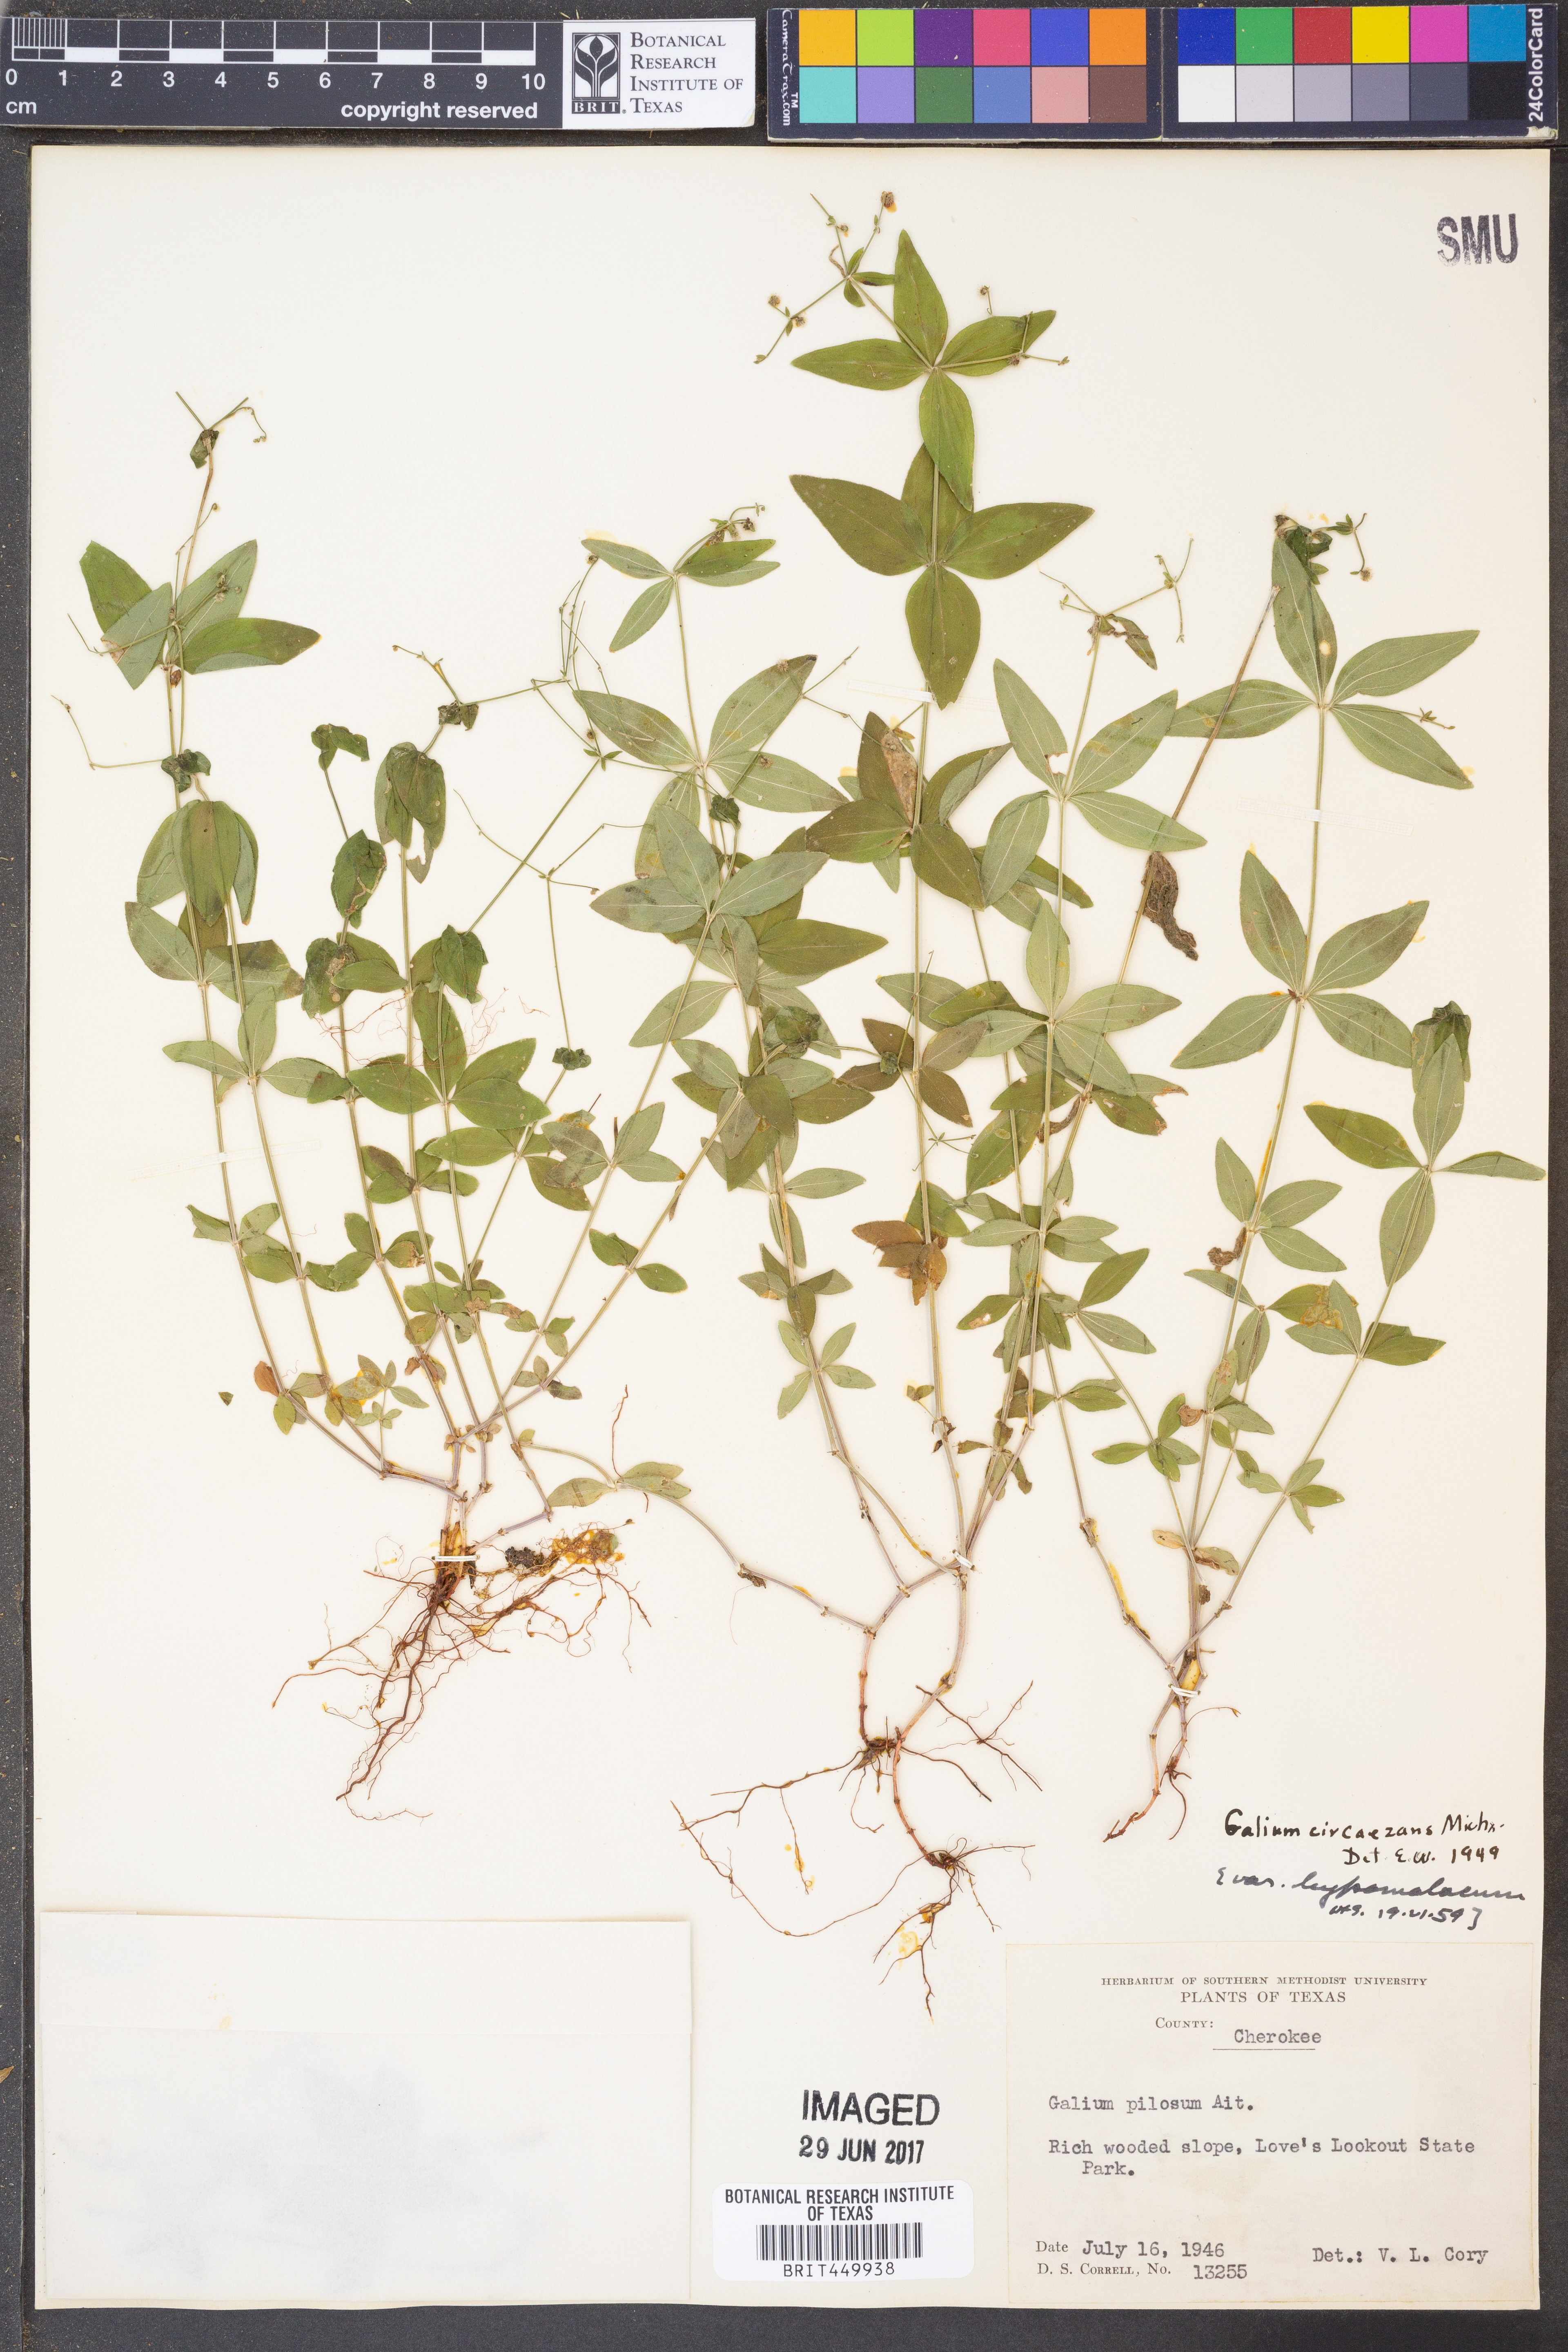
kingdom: Plantae
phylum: Tracheophyta
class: Magnoliopsida
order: Gentianales
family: Rubiaceae
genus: Galium
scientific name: Galium circaezans
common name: Forest bedstraw
